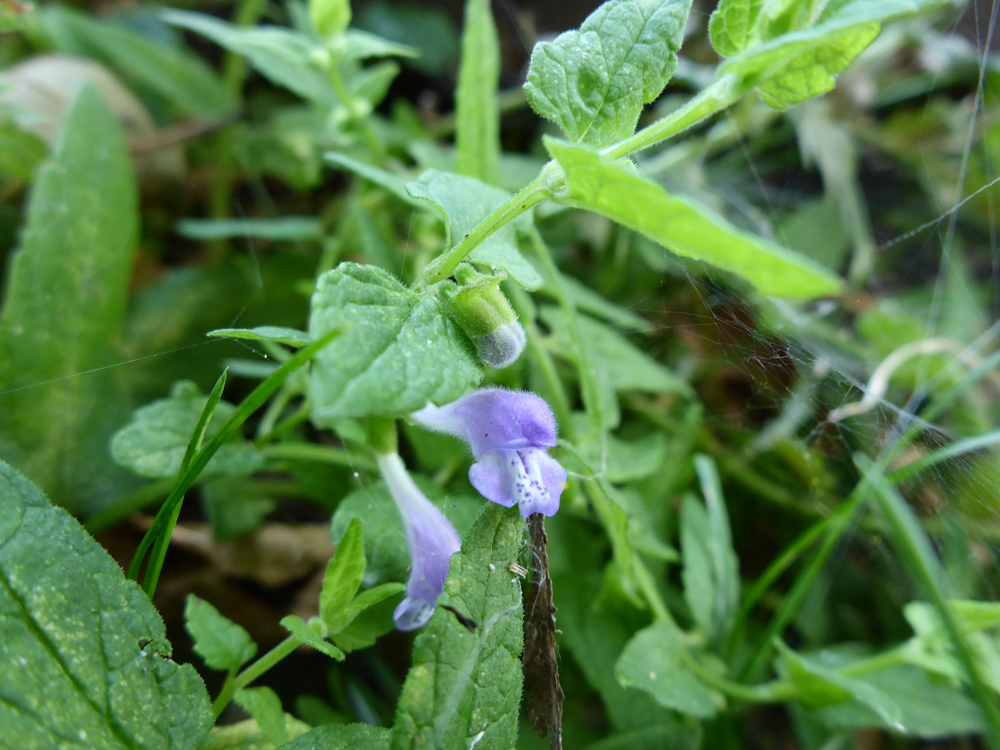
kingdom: Plantae
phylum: Tracheophyta
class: Magnoliopsida
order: Lamiales
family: Lamiaceae
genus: Scutellaria
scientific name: Scutellaria galericulata
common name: Skullcap
